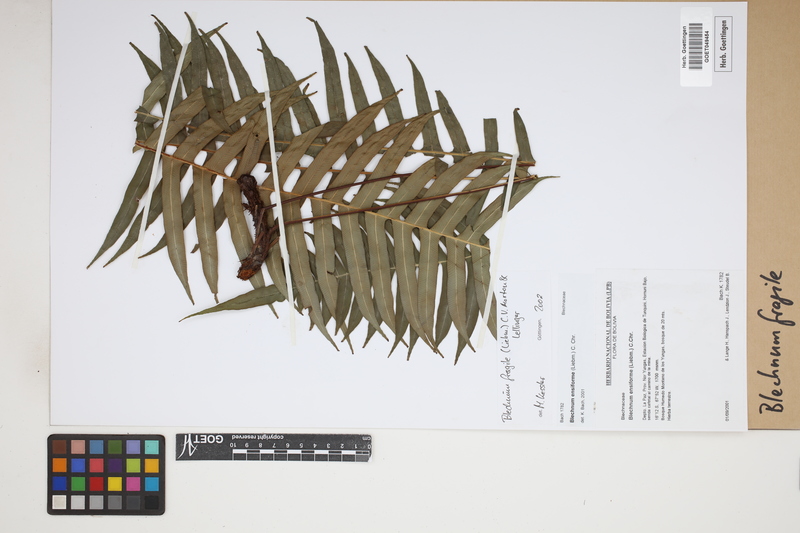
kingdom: Plantae
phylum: Tracheophyta
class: Polypodiopsida
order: Polypodiales
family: Blechnaceae
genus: Lomaridium
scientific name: Lomaridium fragile
